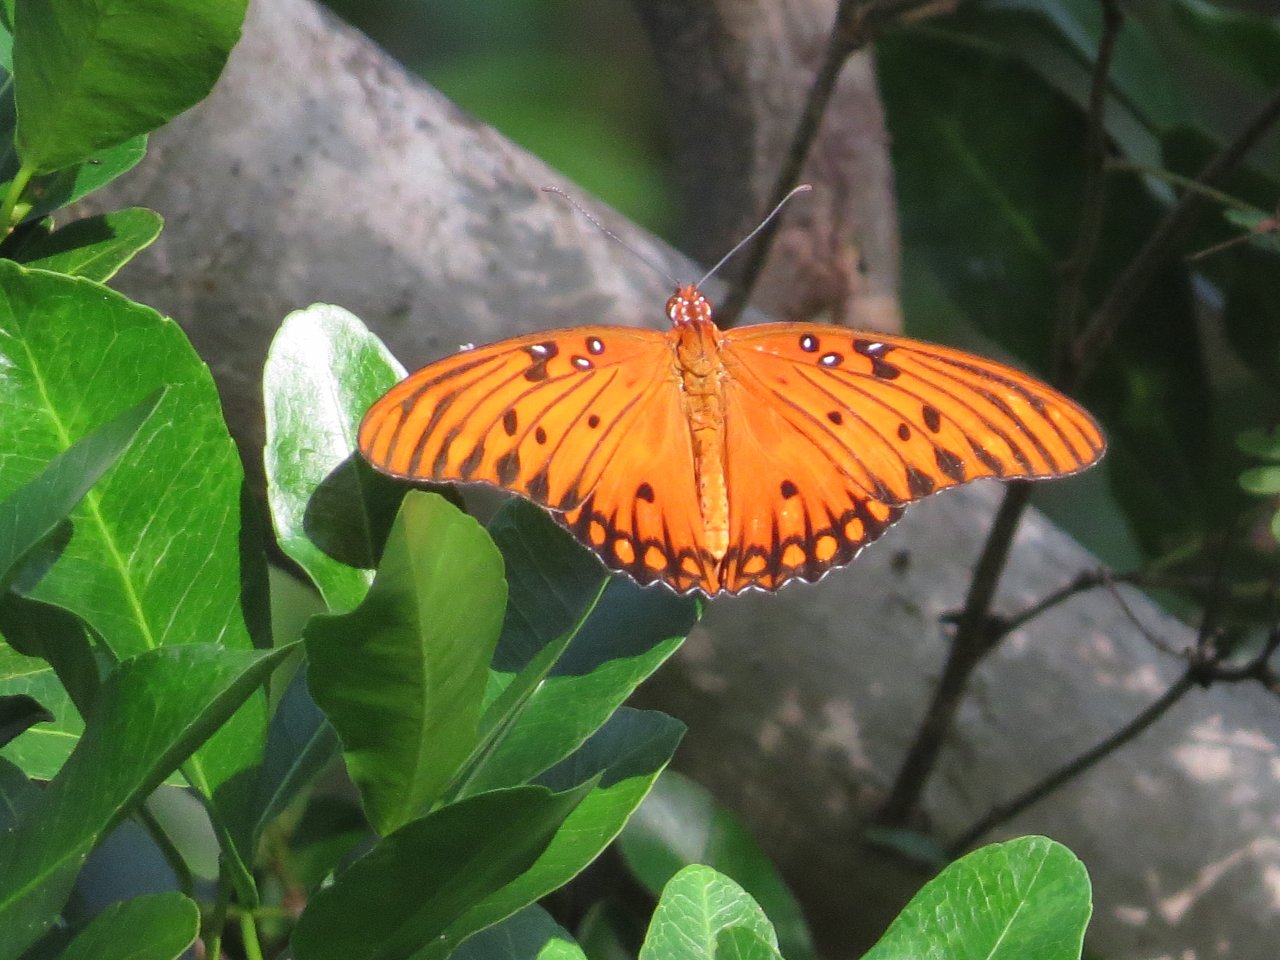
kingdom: Animalia
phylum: Arthropoda
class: Insecta
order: Lepidoptera
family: Nymphalidae
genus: Dione
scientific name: Dione vanillae
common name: Gulf Fritillary
